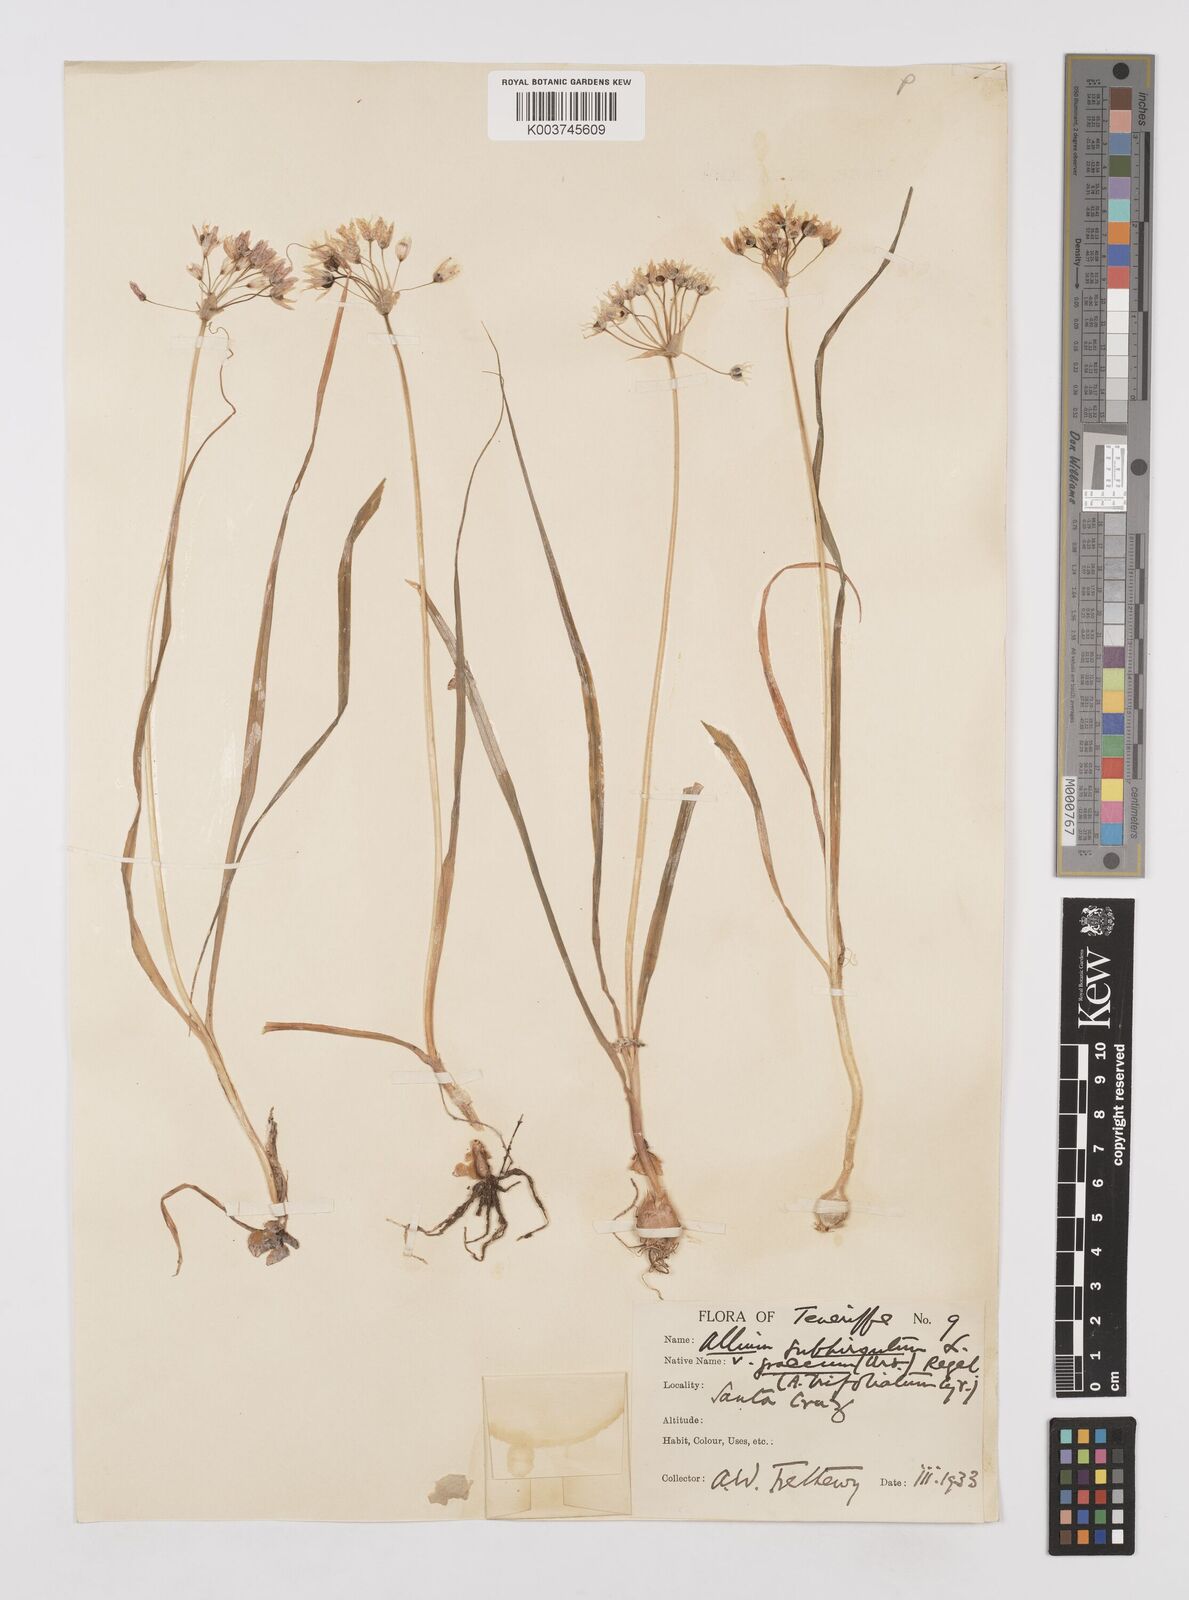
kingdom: Plantae
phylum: Tracheophyta
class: Liliopsida
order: Asparagales
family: Amaryllidaceae
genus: Allium
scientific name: Allium subvillosum
